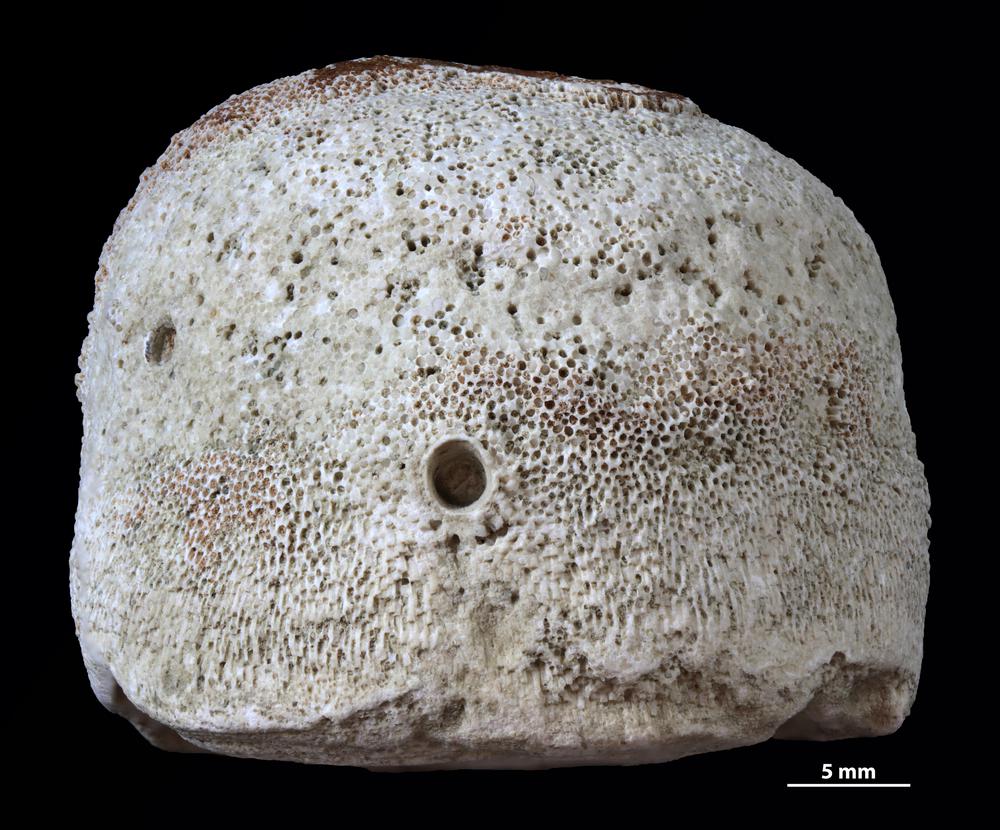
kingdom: Animalia
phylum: Bryozoa
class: Stenolaemata
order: Trepostomatida
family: Diplotrypidae
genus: Diplotrypa
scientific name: Diplotrypa
